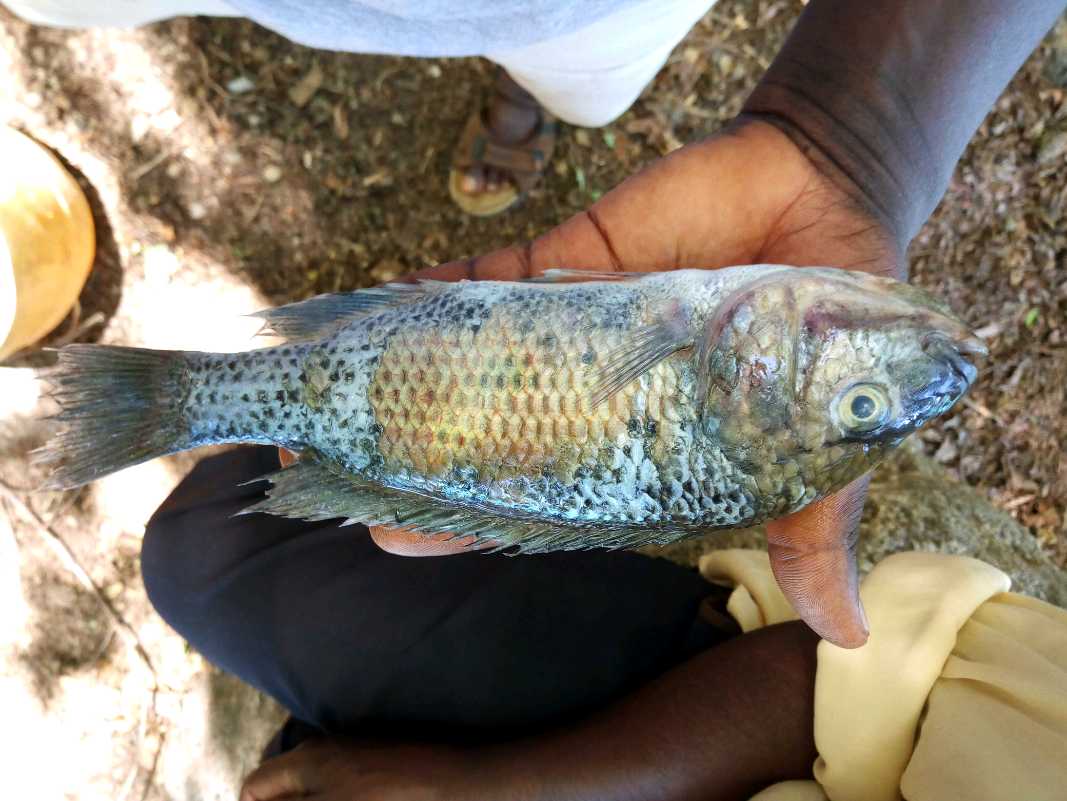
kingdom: Animalia
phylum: Chordata
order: Perciformes
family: Cichlidae
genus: Oreochromis
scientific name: Oreochromis hunteri
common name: Lake chala tilapia
